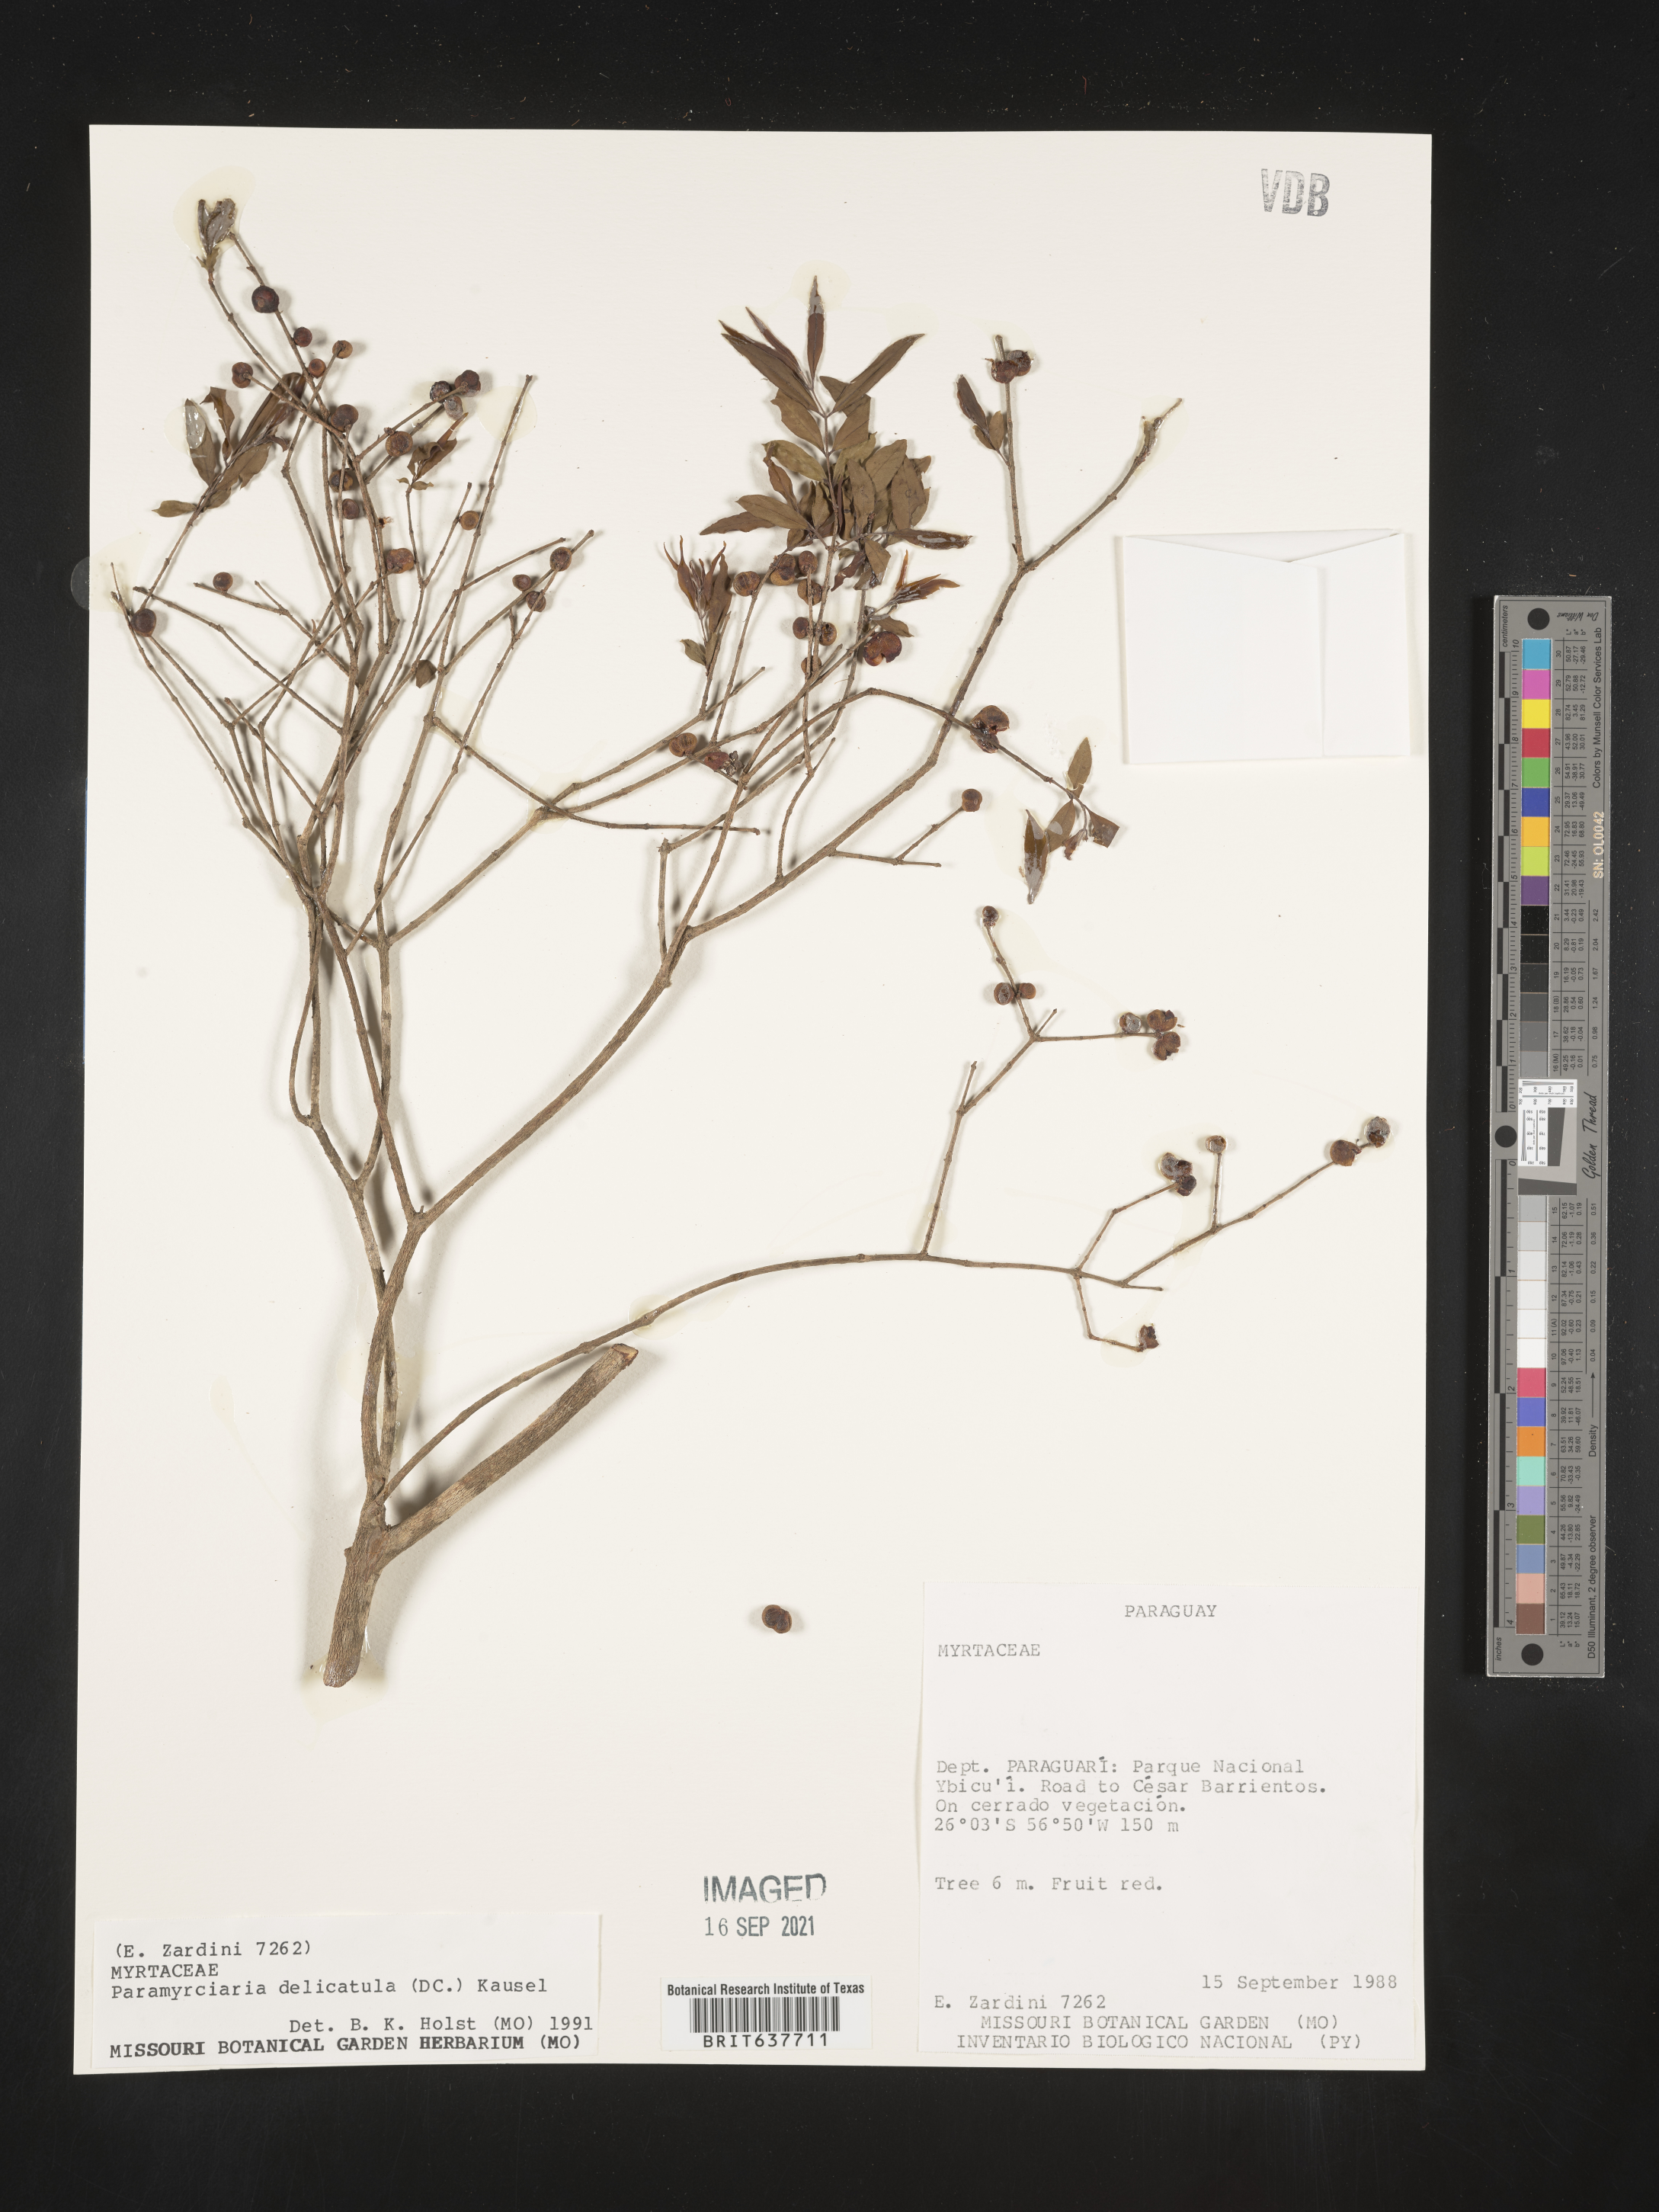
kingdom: Plantae
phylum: Tracheophyta
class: Magnoliopsida
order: Myrtales
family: Myrtaceae
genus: Myrciaria
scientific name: Myrciaria
